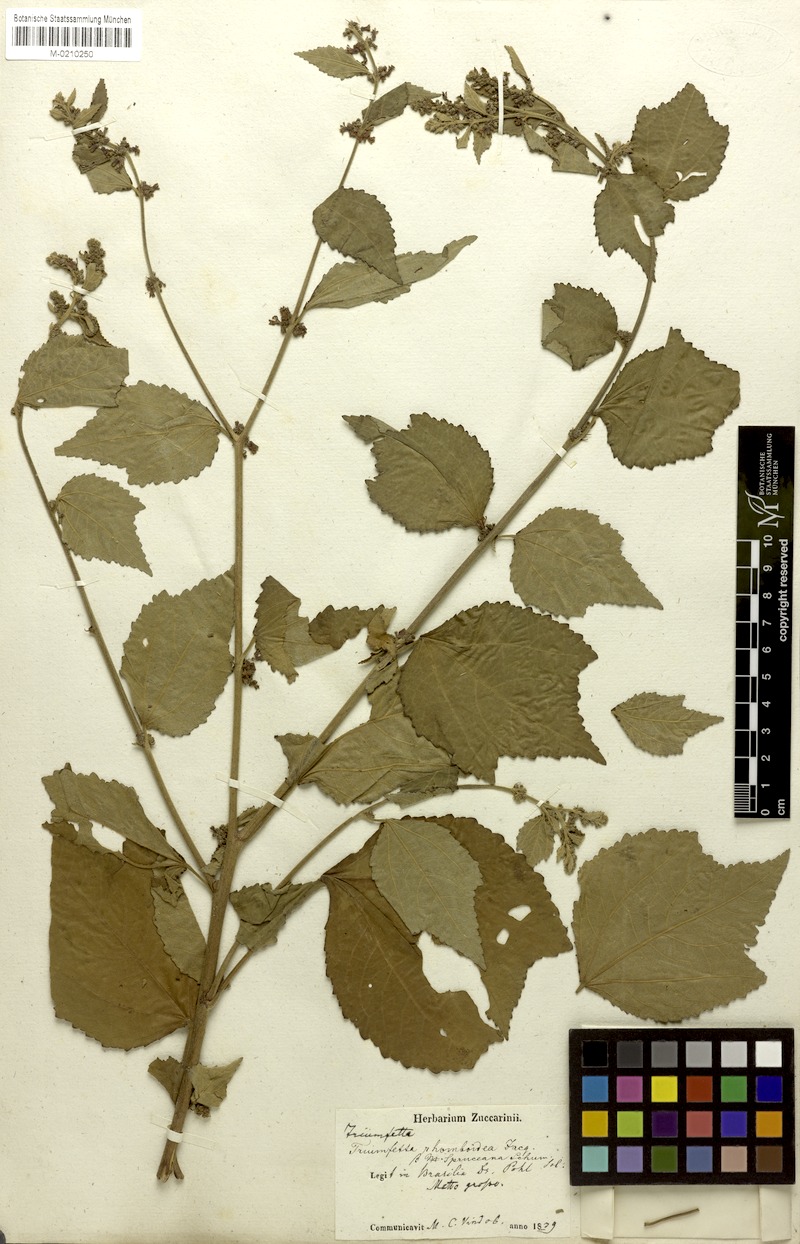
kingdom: Plantae
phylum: Tracheophyta
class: Magnoliopsida
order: Malvales
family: Malvaceae
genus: Triumfetta
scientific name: Triumfetta rhomboidea
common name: Diamond burbark
